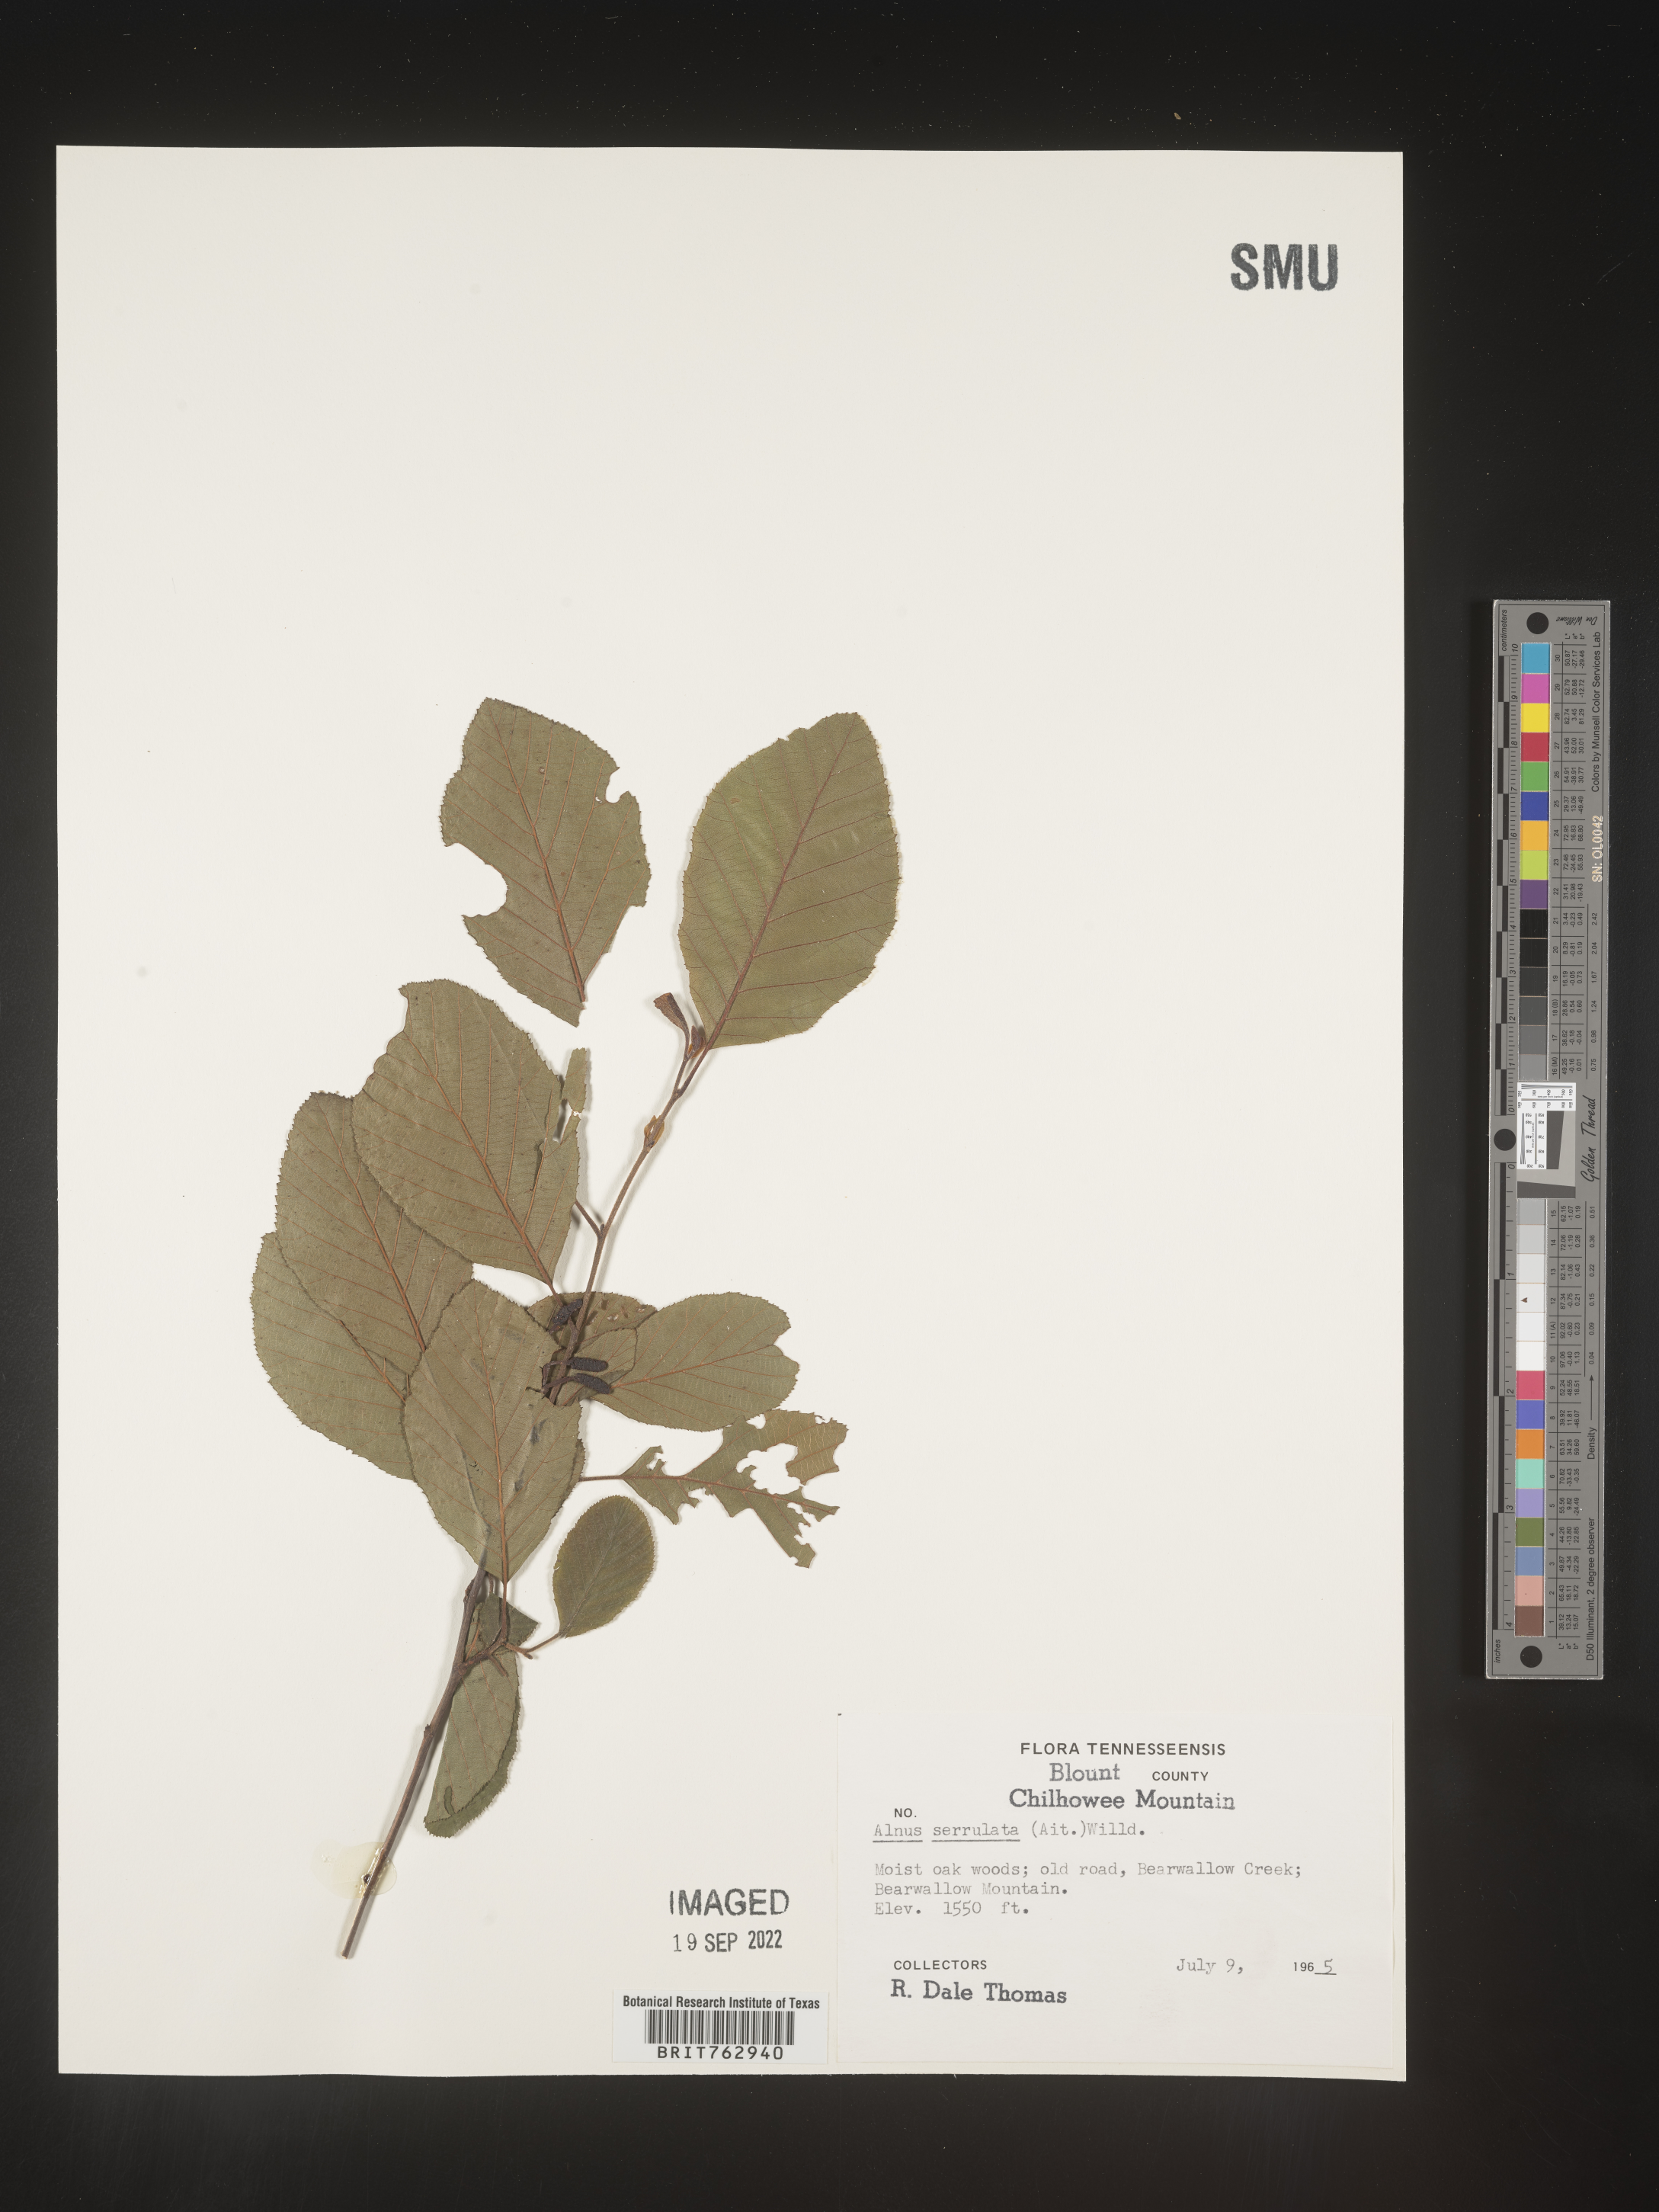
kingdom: Plantae
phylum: Tracheophyta
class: Magnoliopsida
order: Fagales
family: Betulaceae
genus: Alnus
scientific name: Alnus serrulata
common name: Hazel alder
